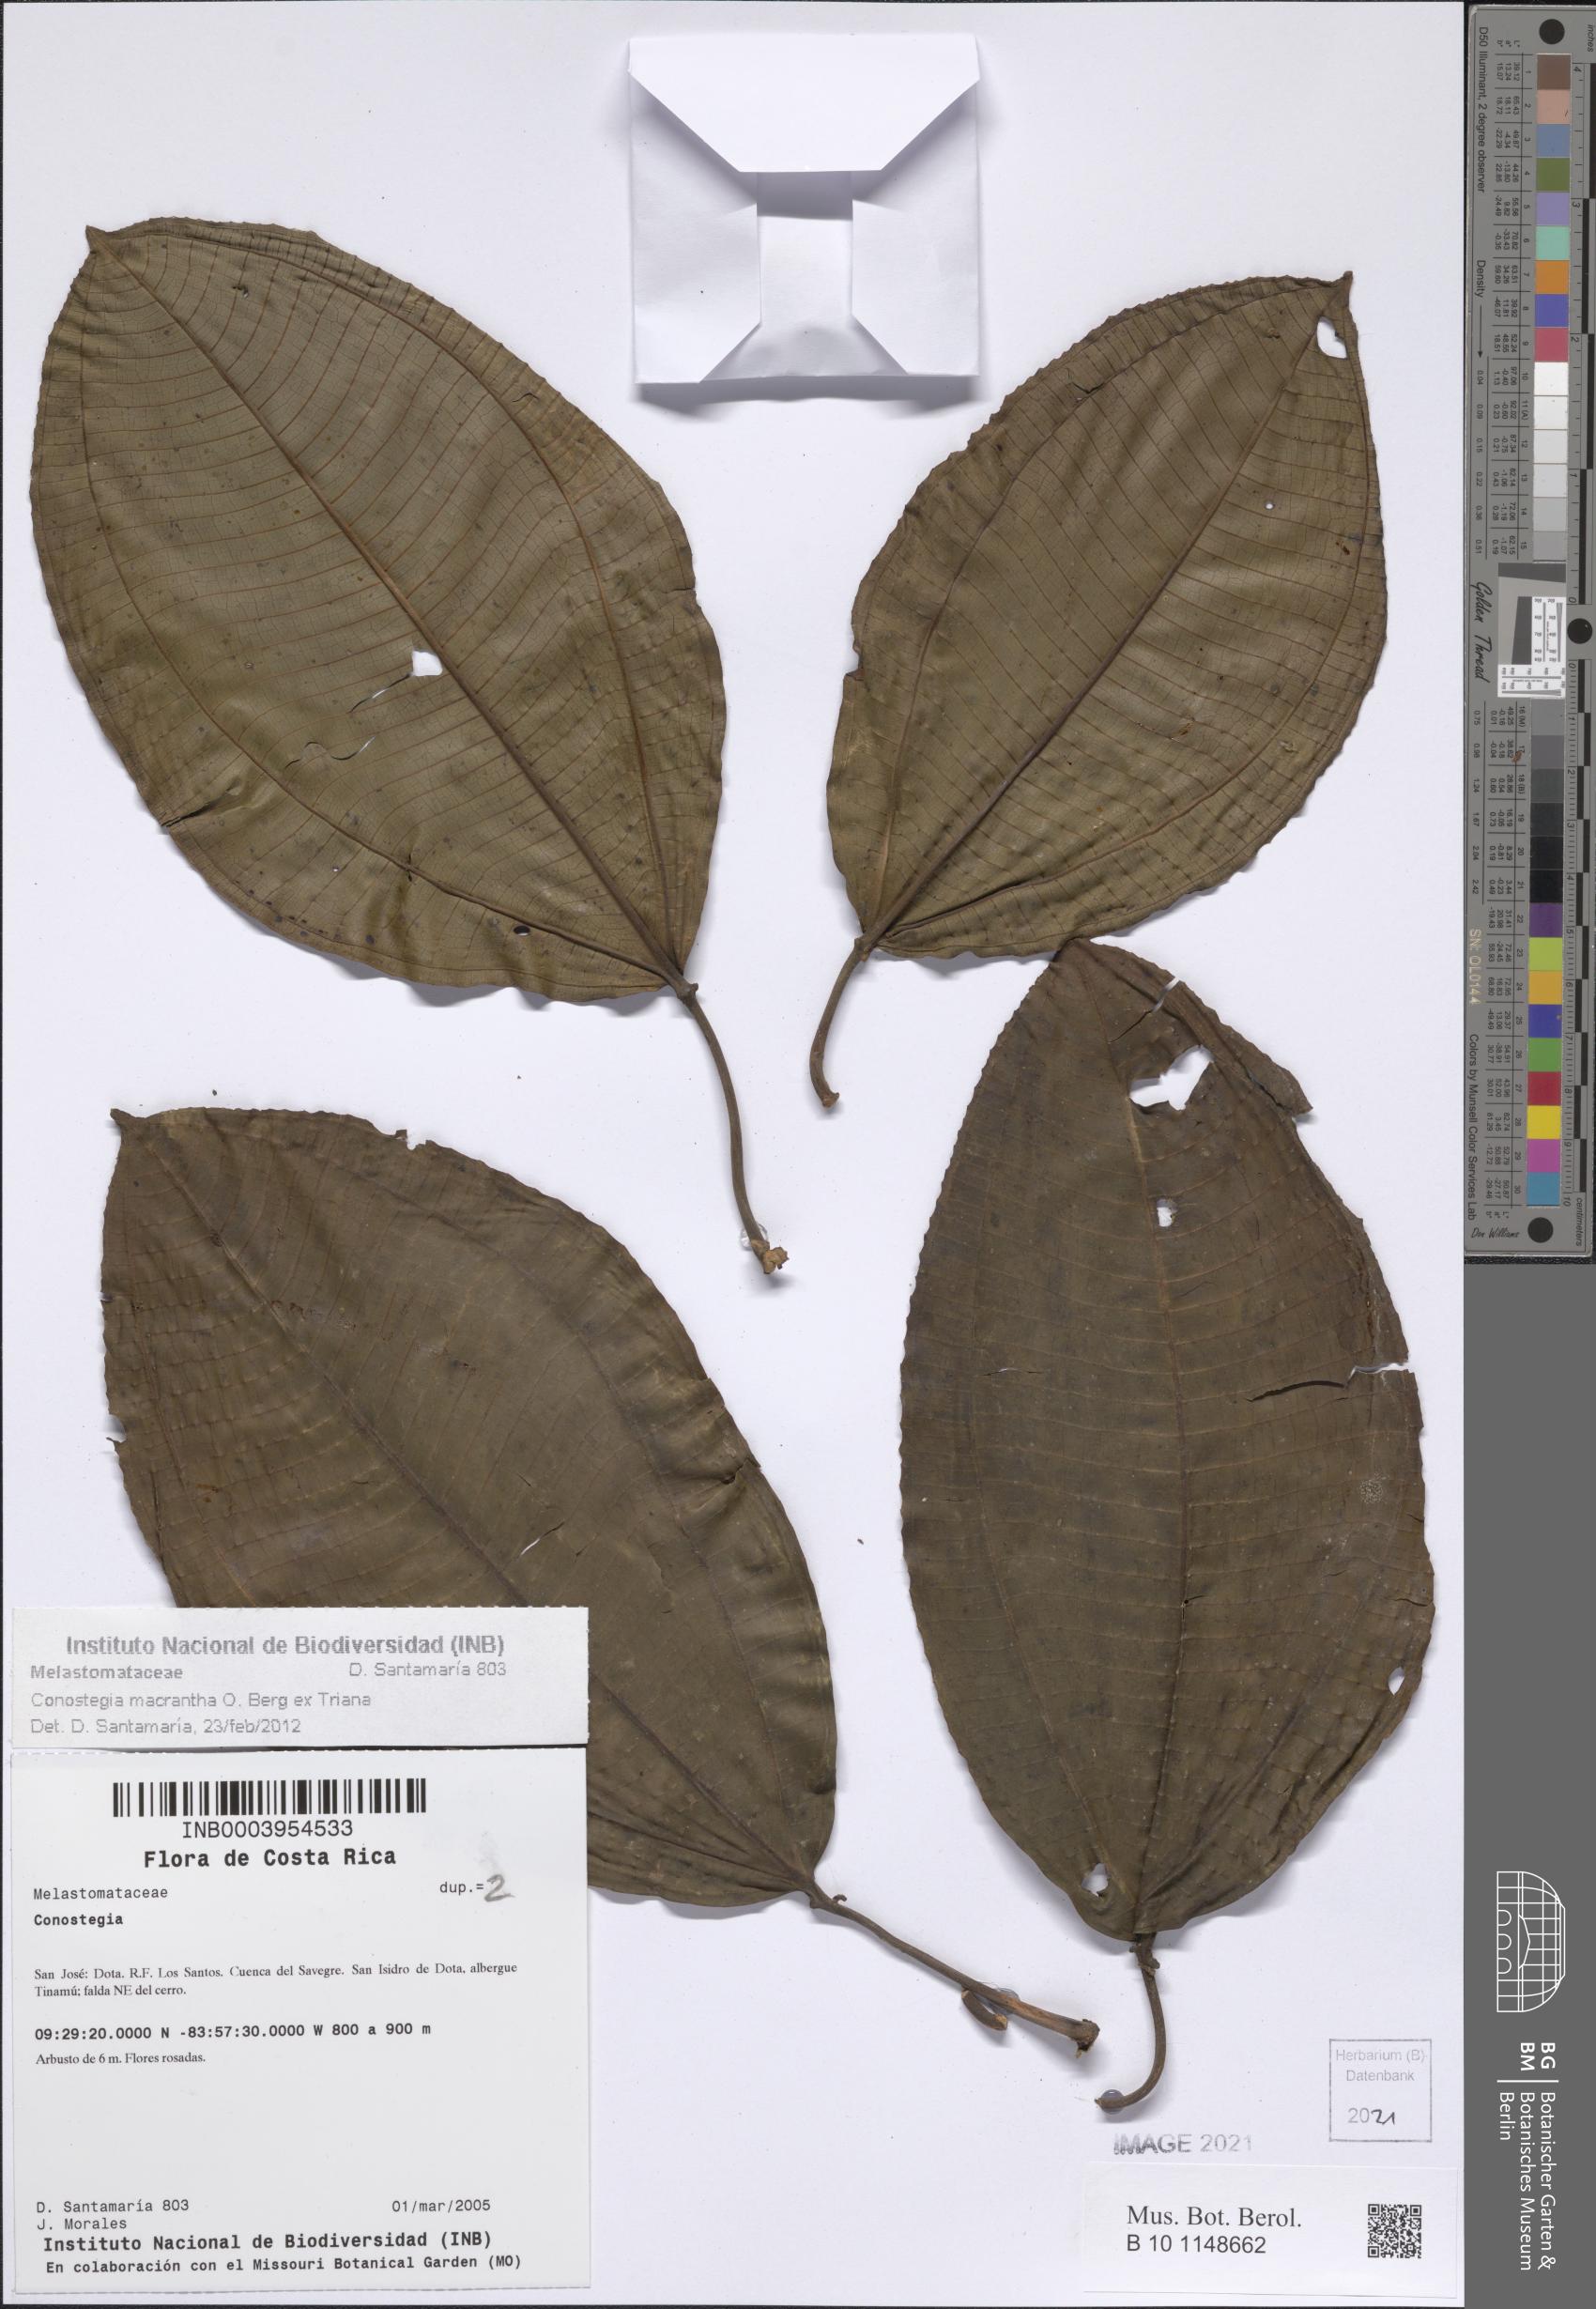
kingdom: Plantae
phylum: Tracheophyta
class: Magnoliopsida
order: Myrtales
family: Melastomataceae
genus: Miconia
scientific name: Miconia conomacrantha
